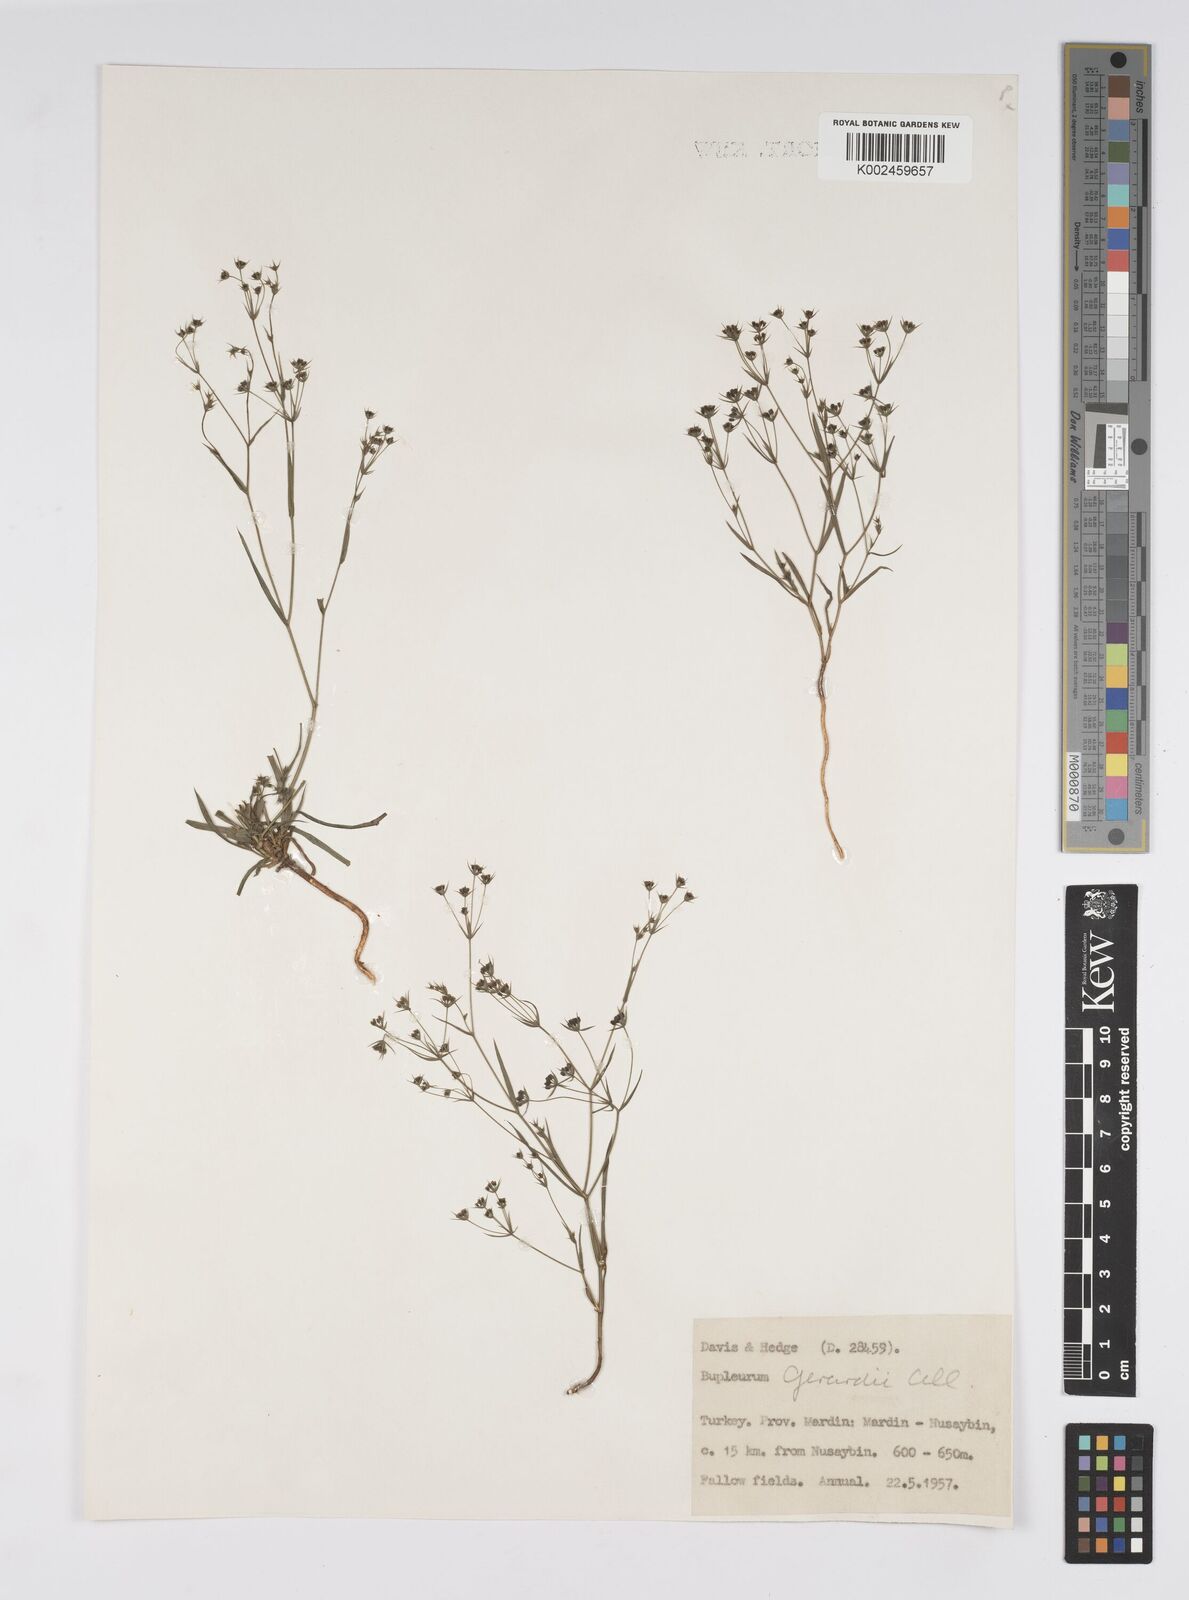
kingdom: Plantae
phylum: Tracheophyta
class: Magnoliopsida
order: Apiales
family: Apiaceae
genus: Bupleurum
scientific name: Bupleurum gerardi
